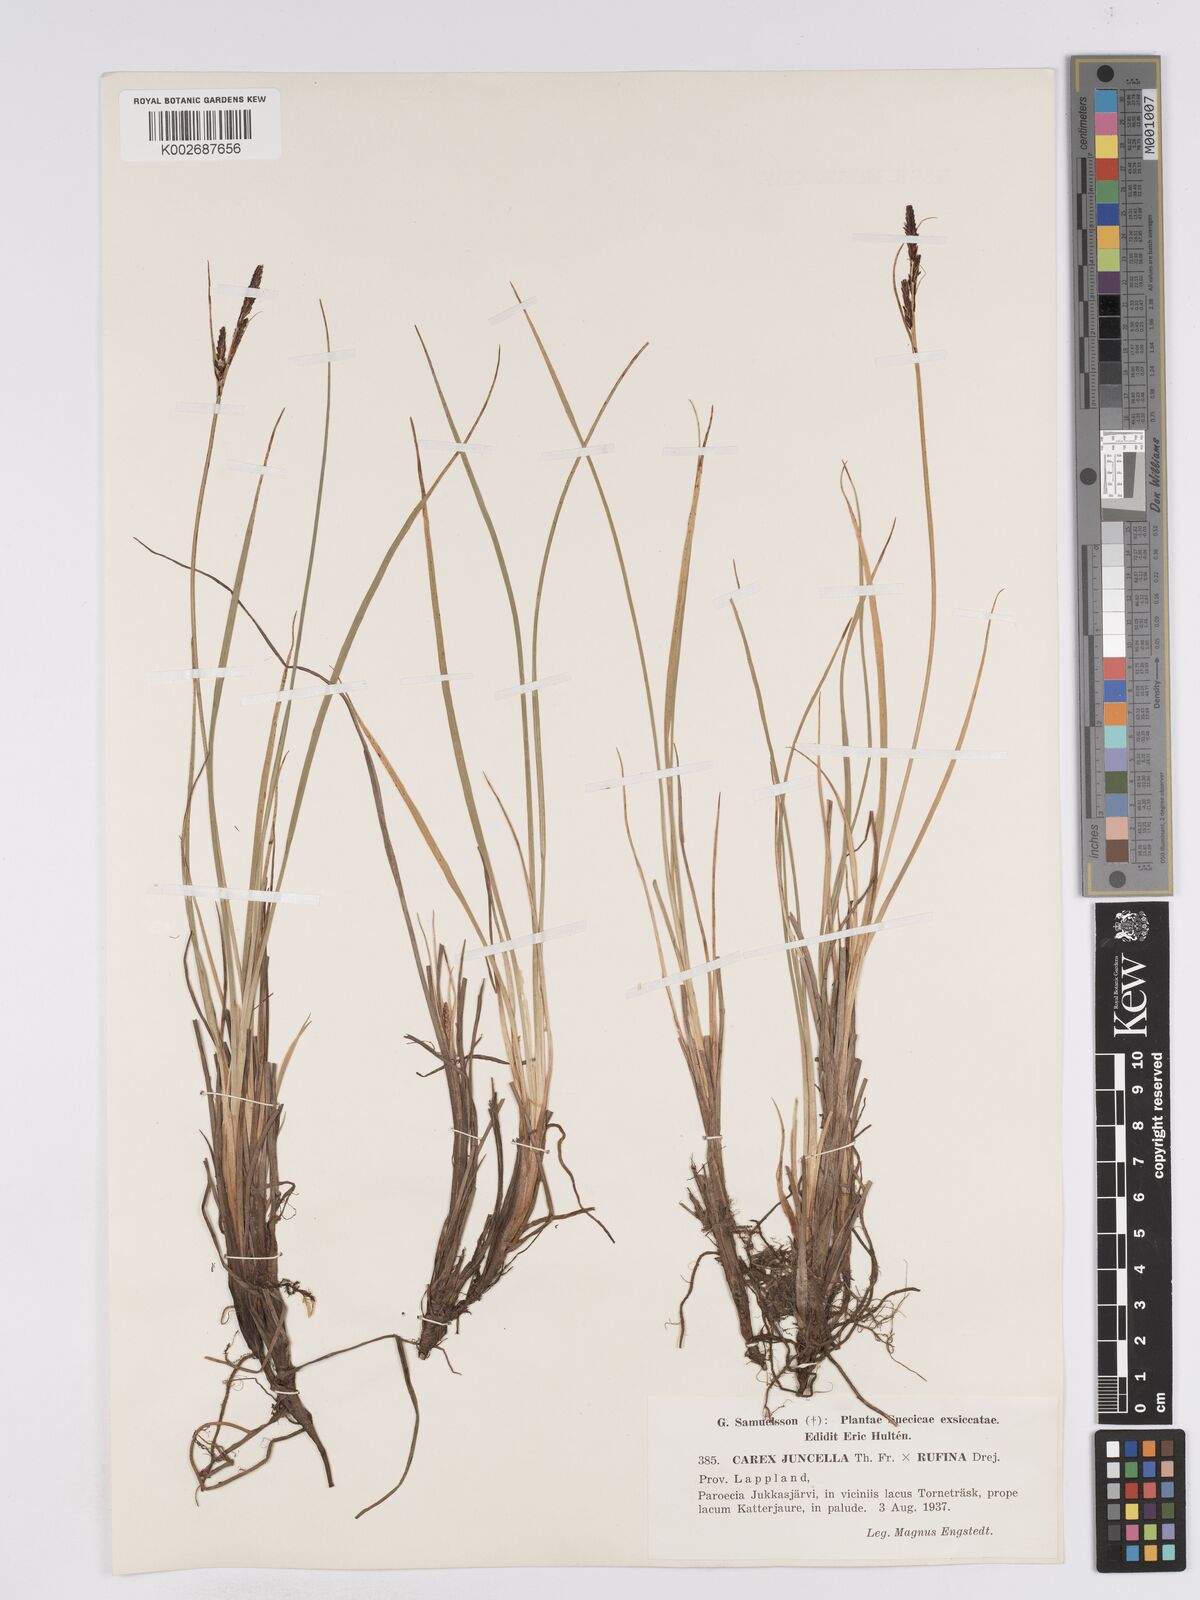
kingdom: Plantae
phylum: Tracheophyta
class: Liliopsida
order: Poales
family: Cyperaceae
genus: Carex
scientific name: Carex
